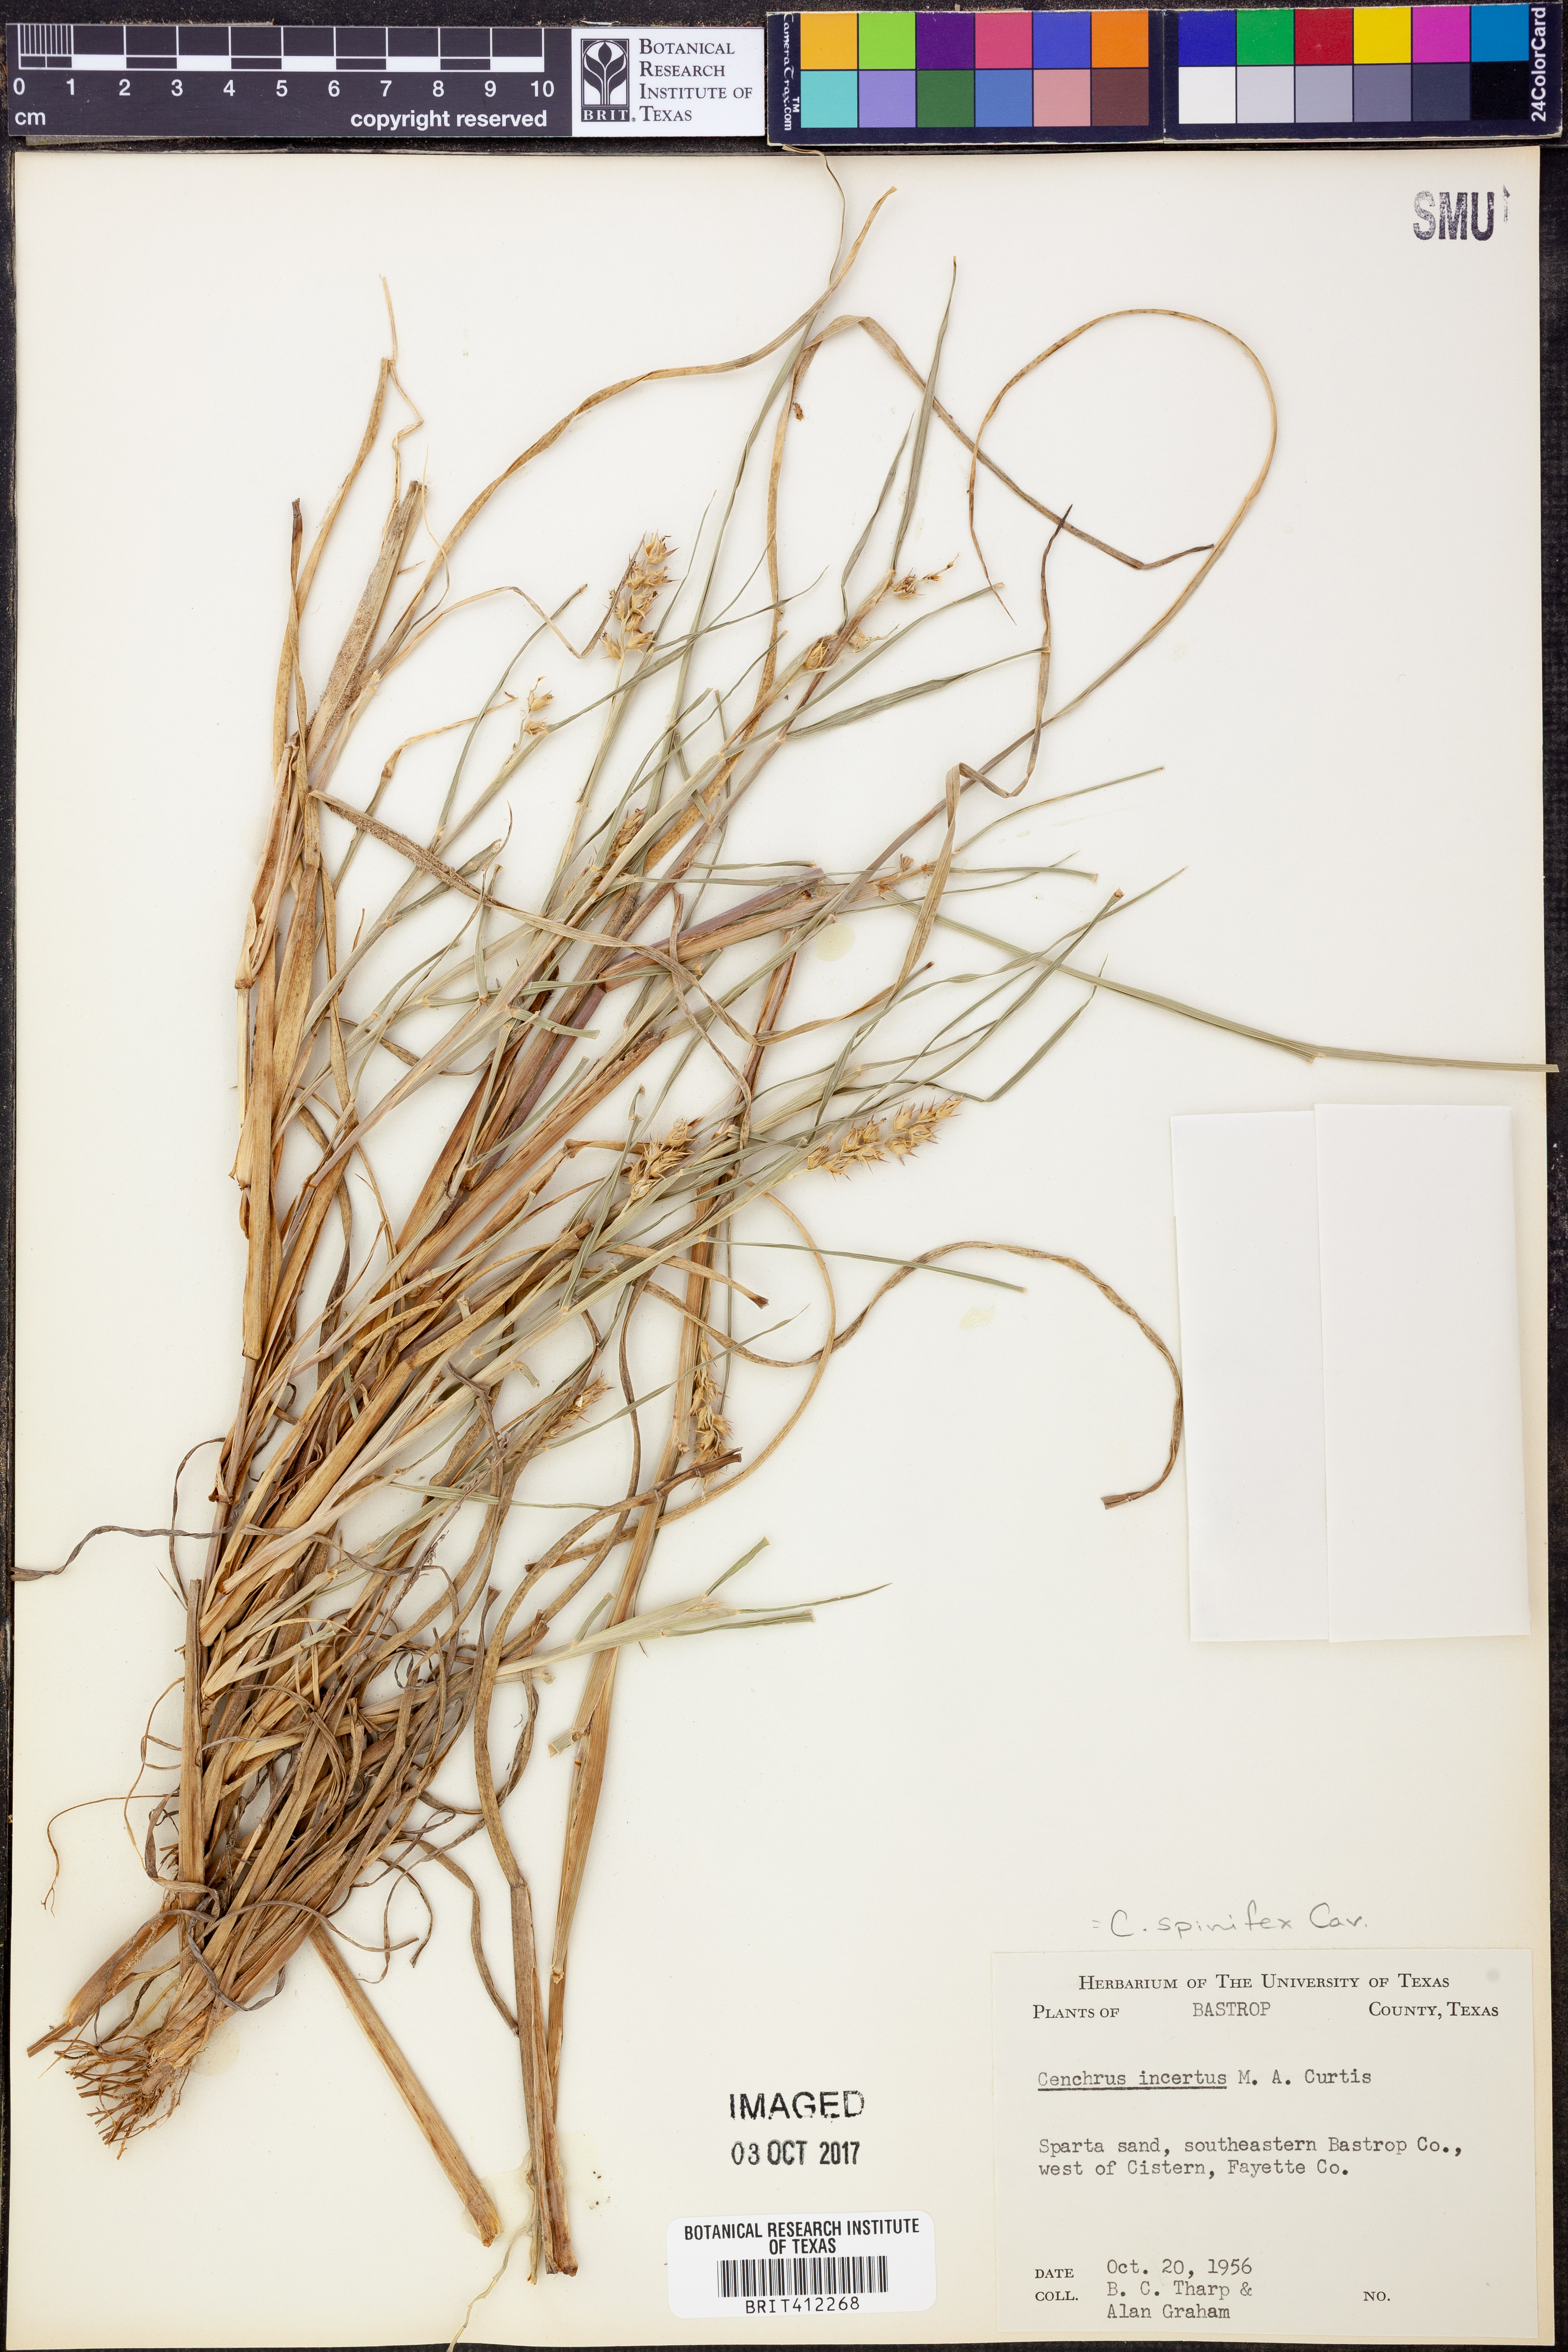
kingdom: Plantae
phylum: Tracheophyta
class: Liliopsida
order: Poales
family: Poaceae
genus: Cenchrus
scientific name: Cenchrus spinifex
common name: Coast sandbur
